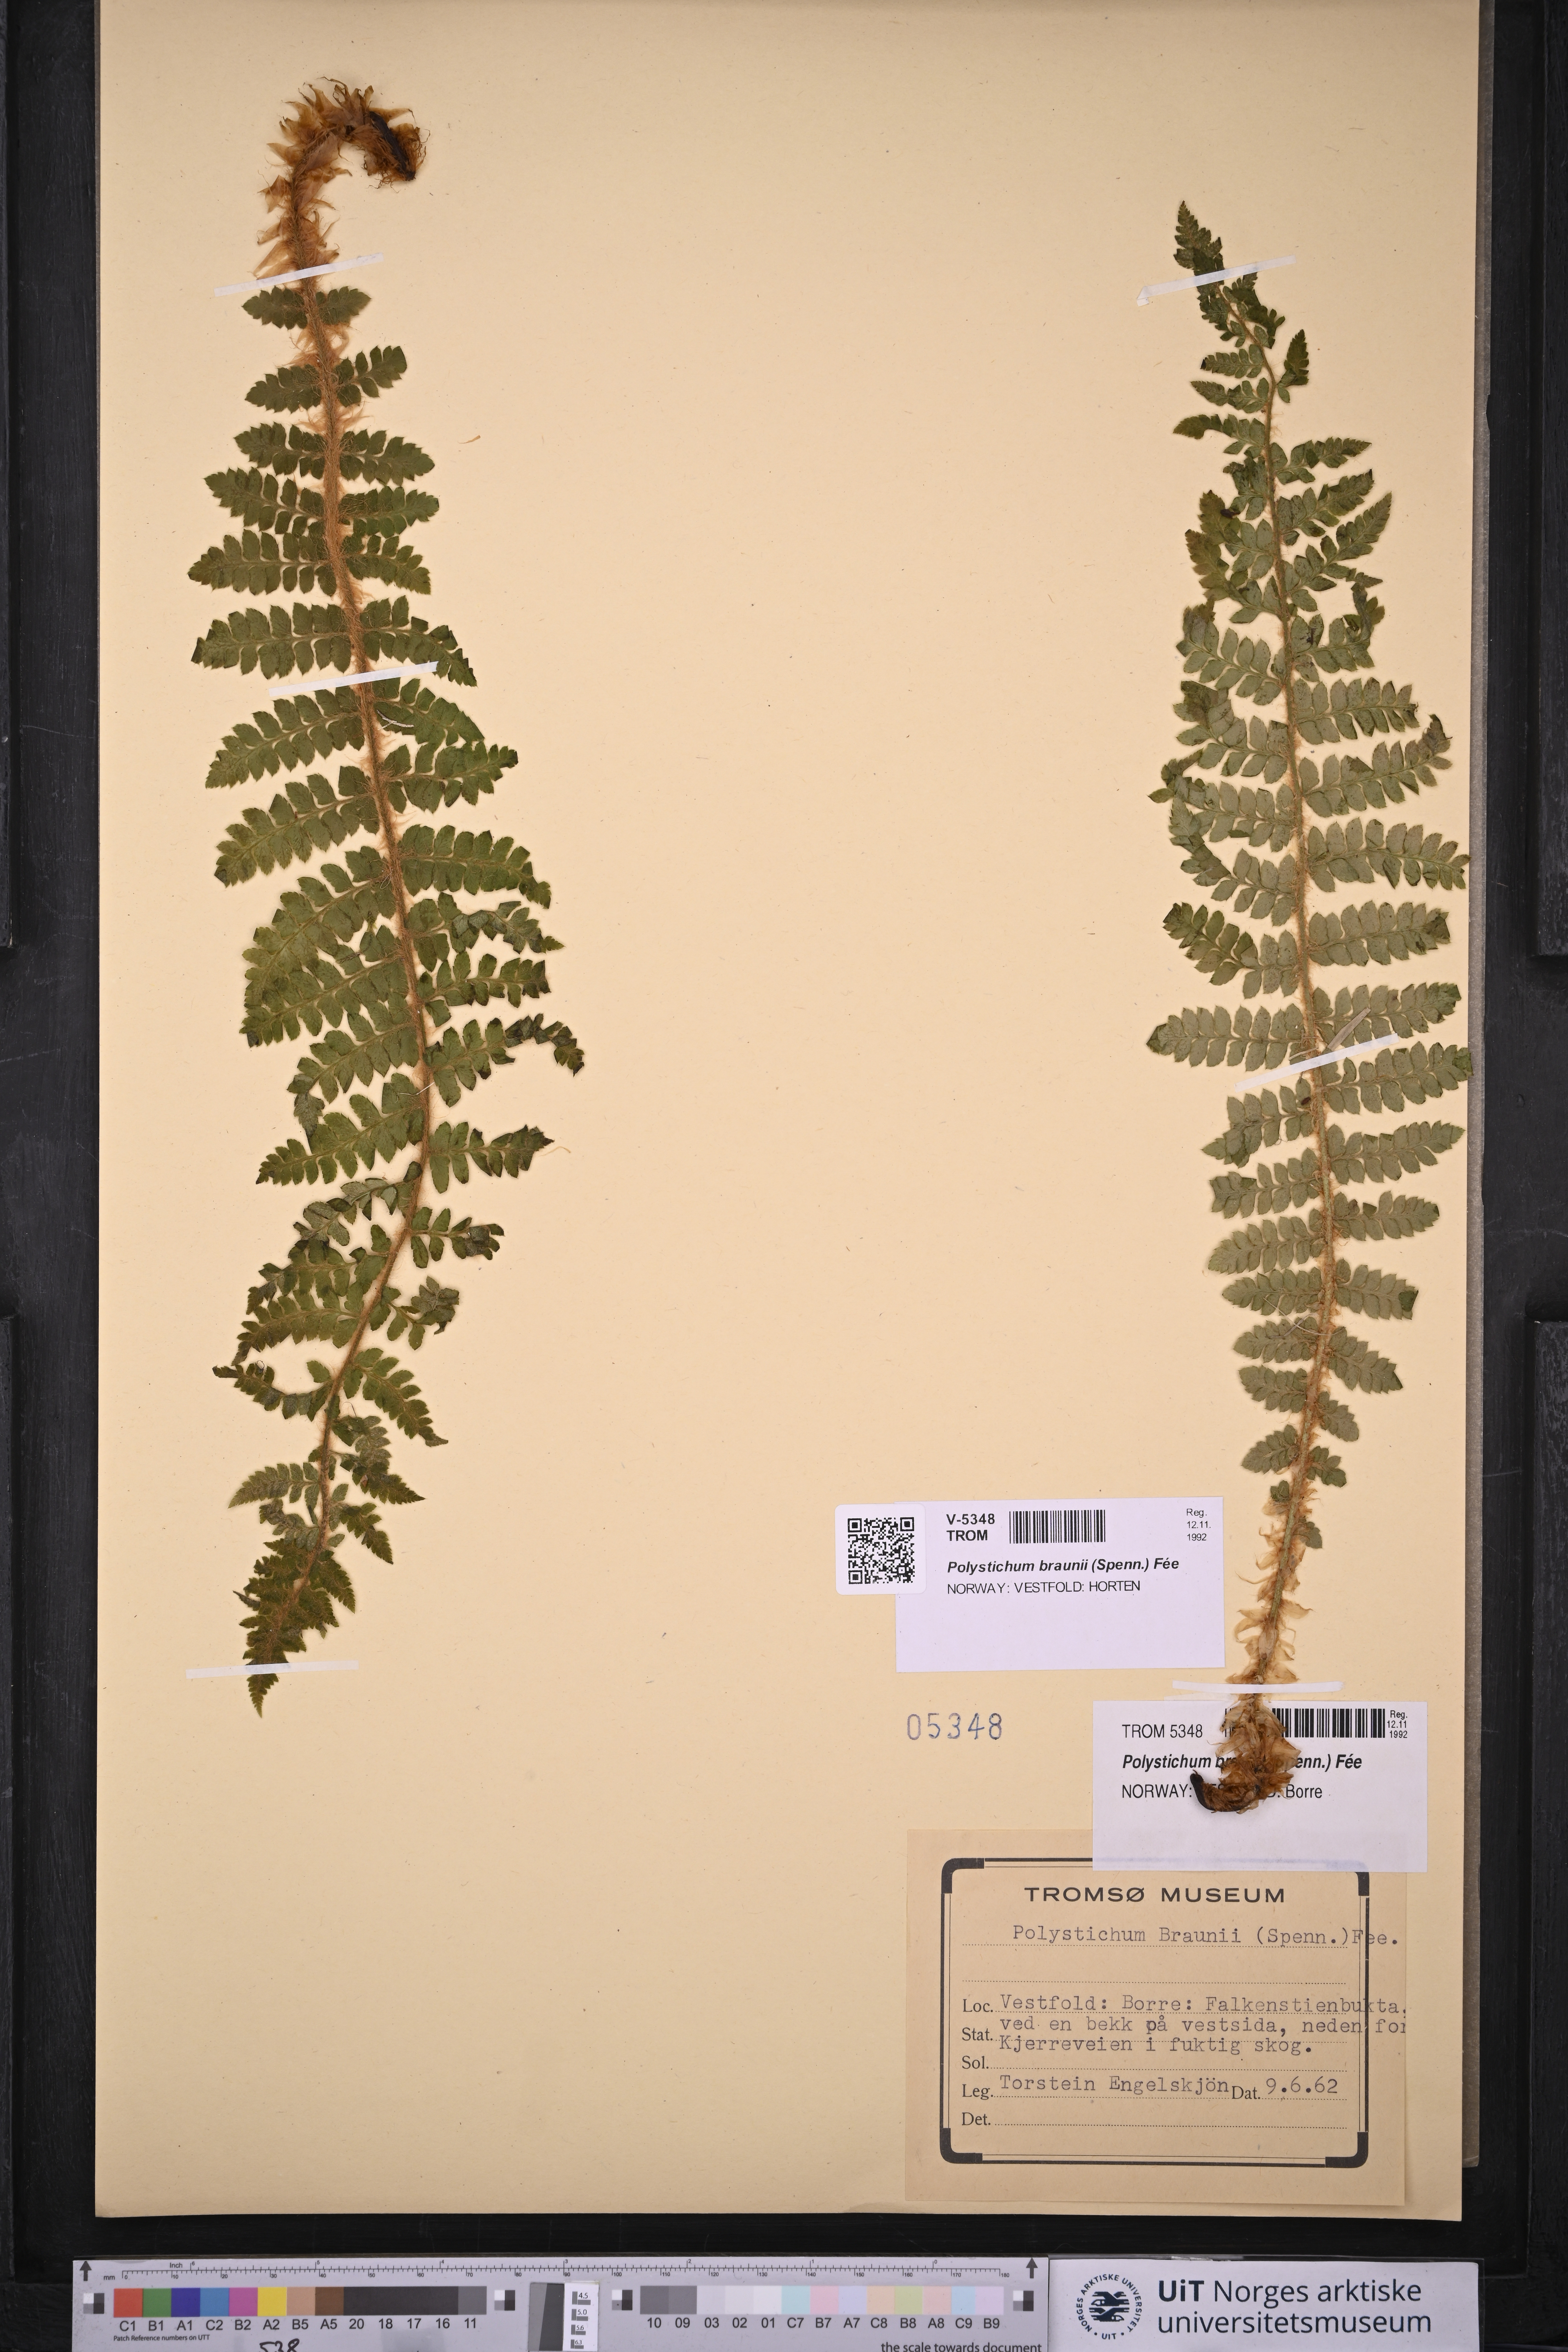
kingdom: Plantae
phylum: Tracheophyta
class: Polypodiopsida
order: Polypodiales
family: Dryopteridaceae
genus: Polystichum
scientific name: Polystichum braunii
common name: Braun's holly fern
